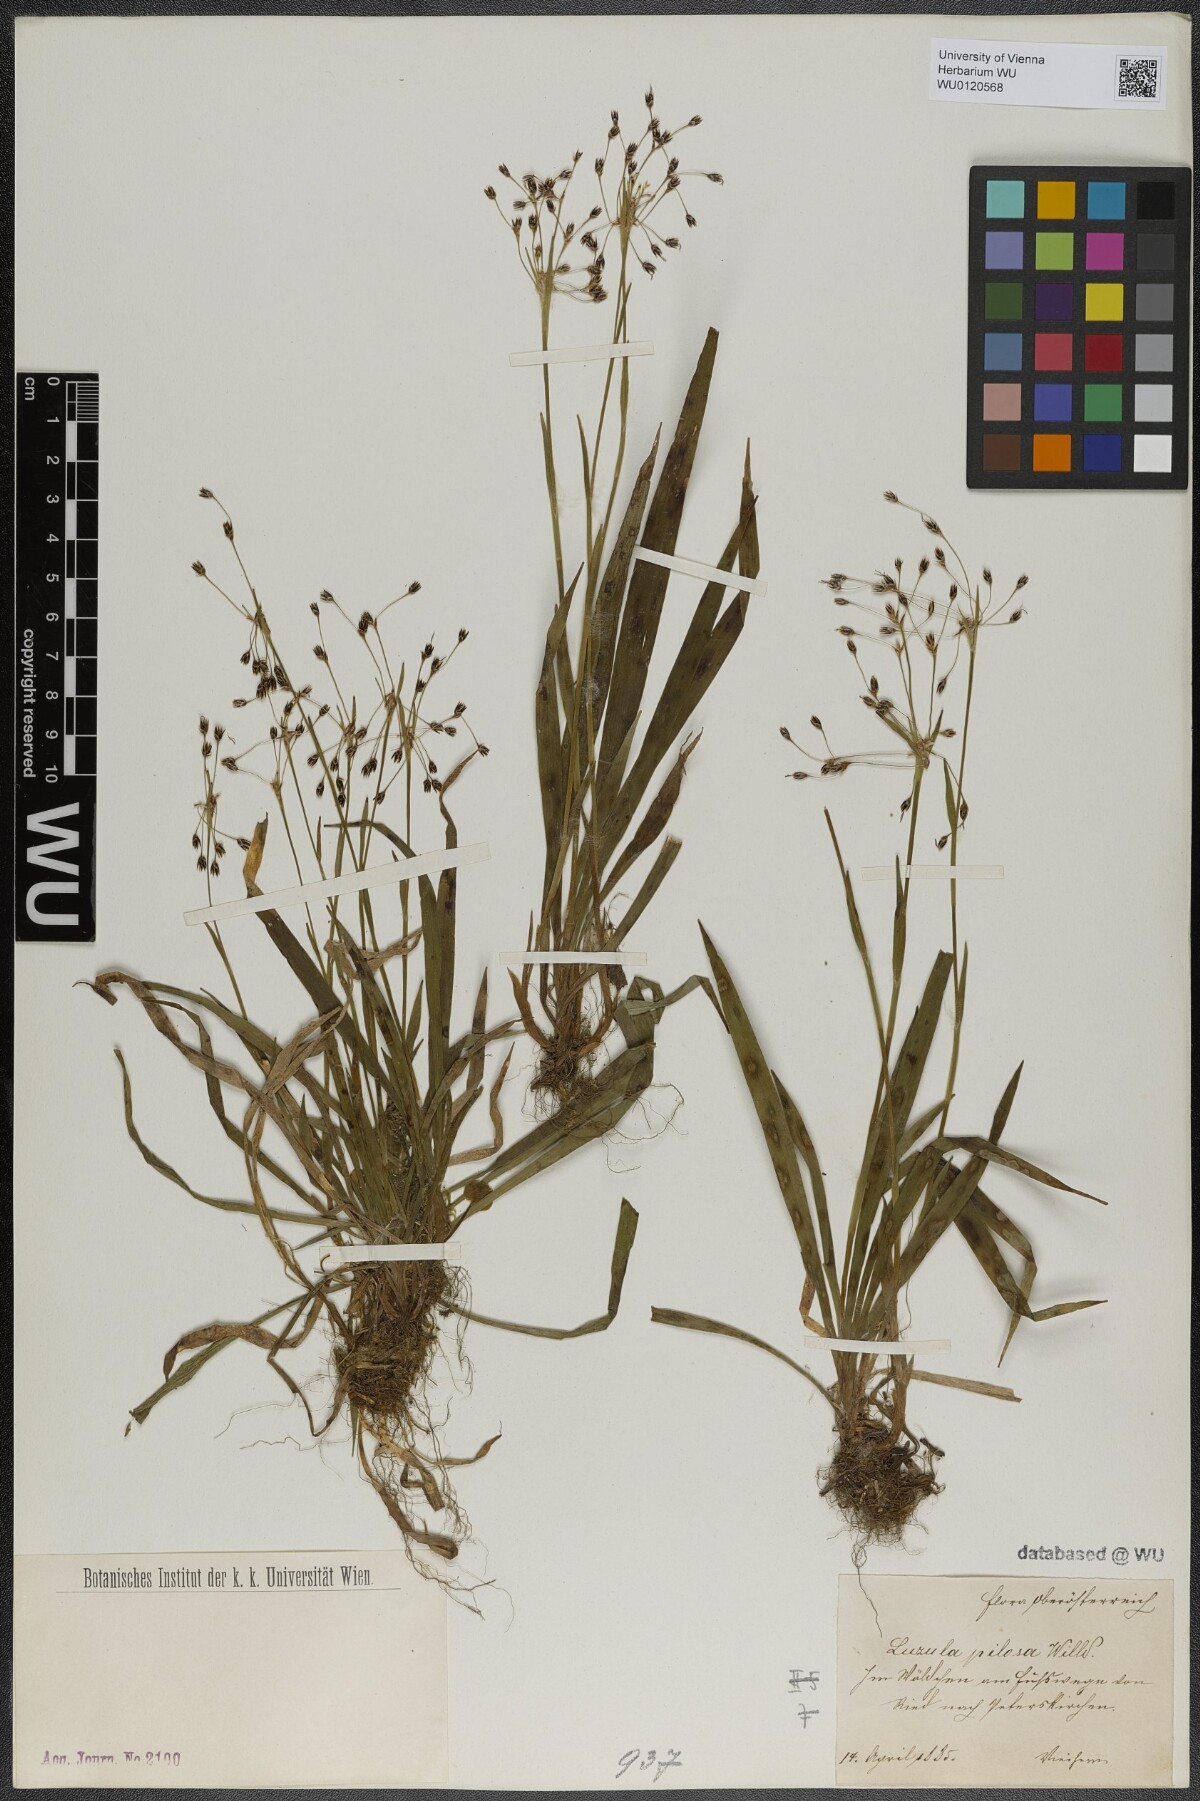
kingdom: Plantae
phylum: Tracheophyta
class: Liliopsida
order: Poales
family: Juncaceae
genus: Luzula
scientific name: Luzula pilosa
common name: Hairy wood-rush
